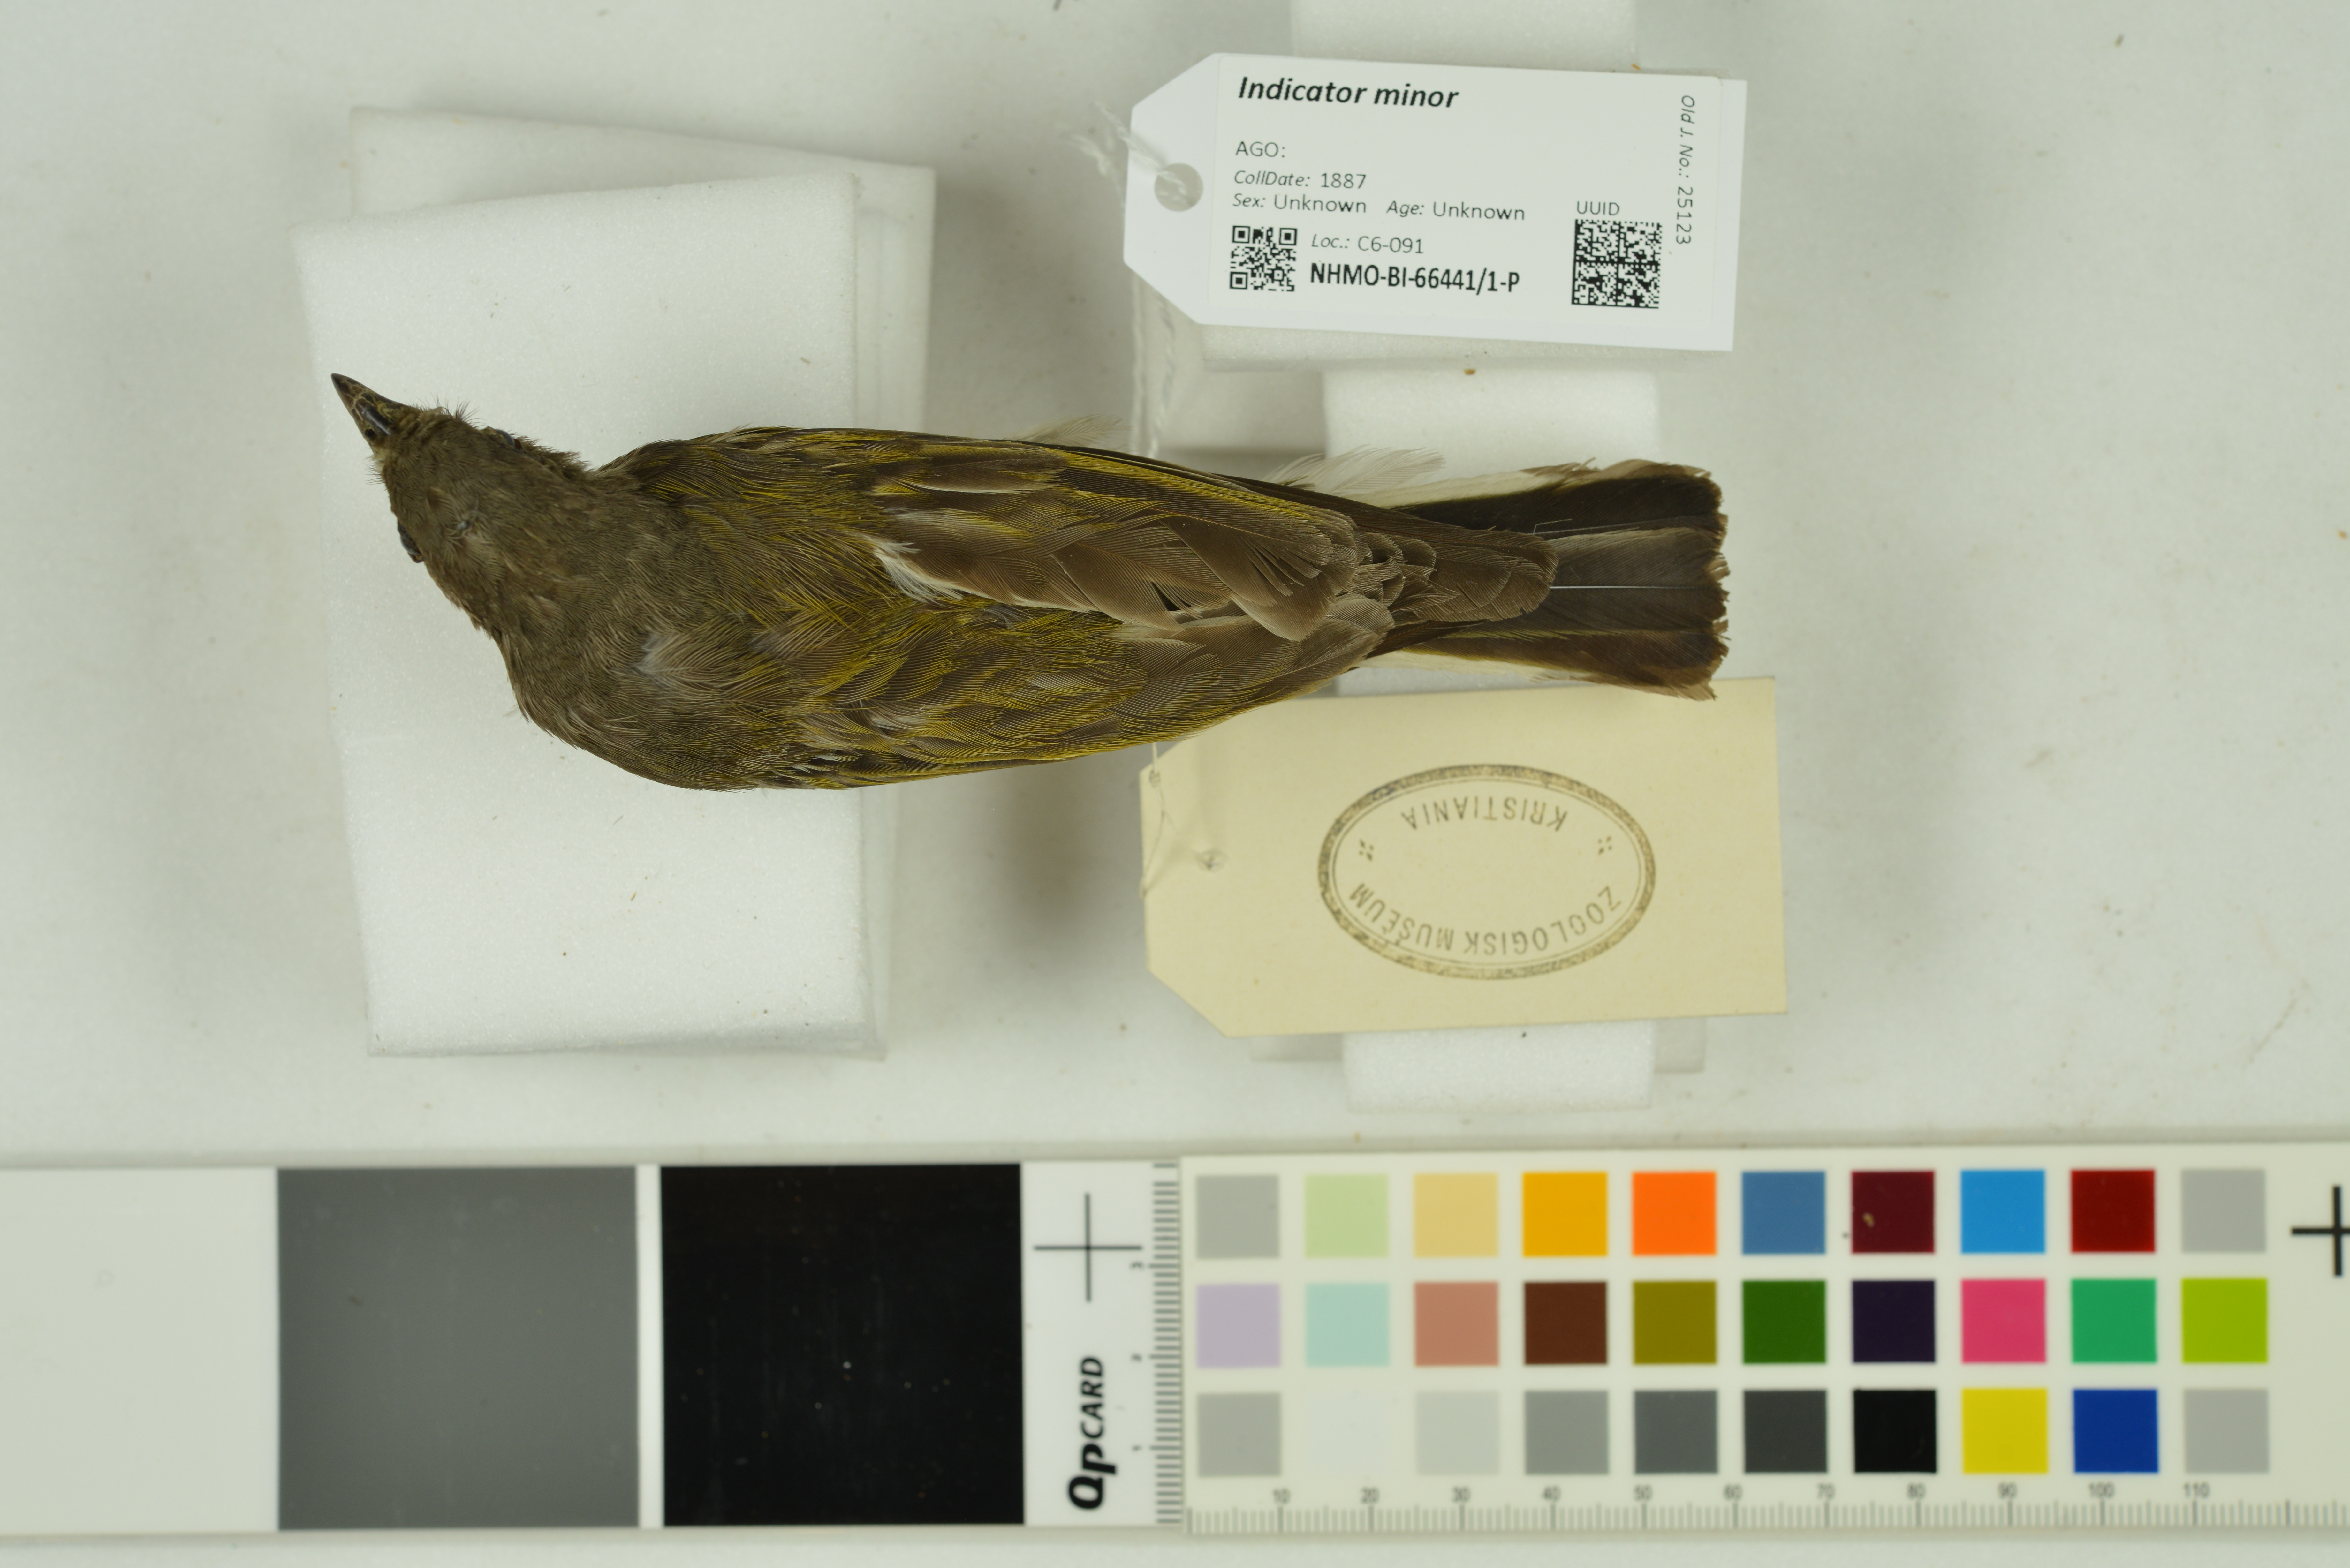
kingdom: Animalia
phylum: Chordata
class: Aves
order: Piciformes
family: Indicatoridae
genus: Indicator
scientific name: Indicator minor
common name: Lesser honeyguide
